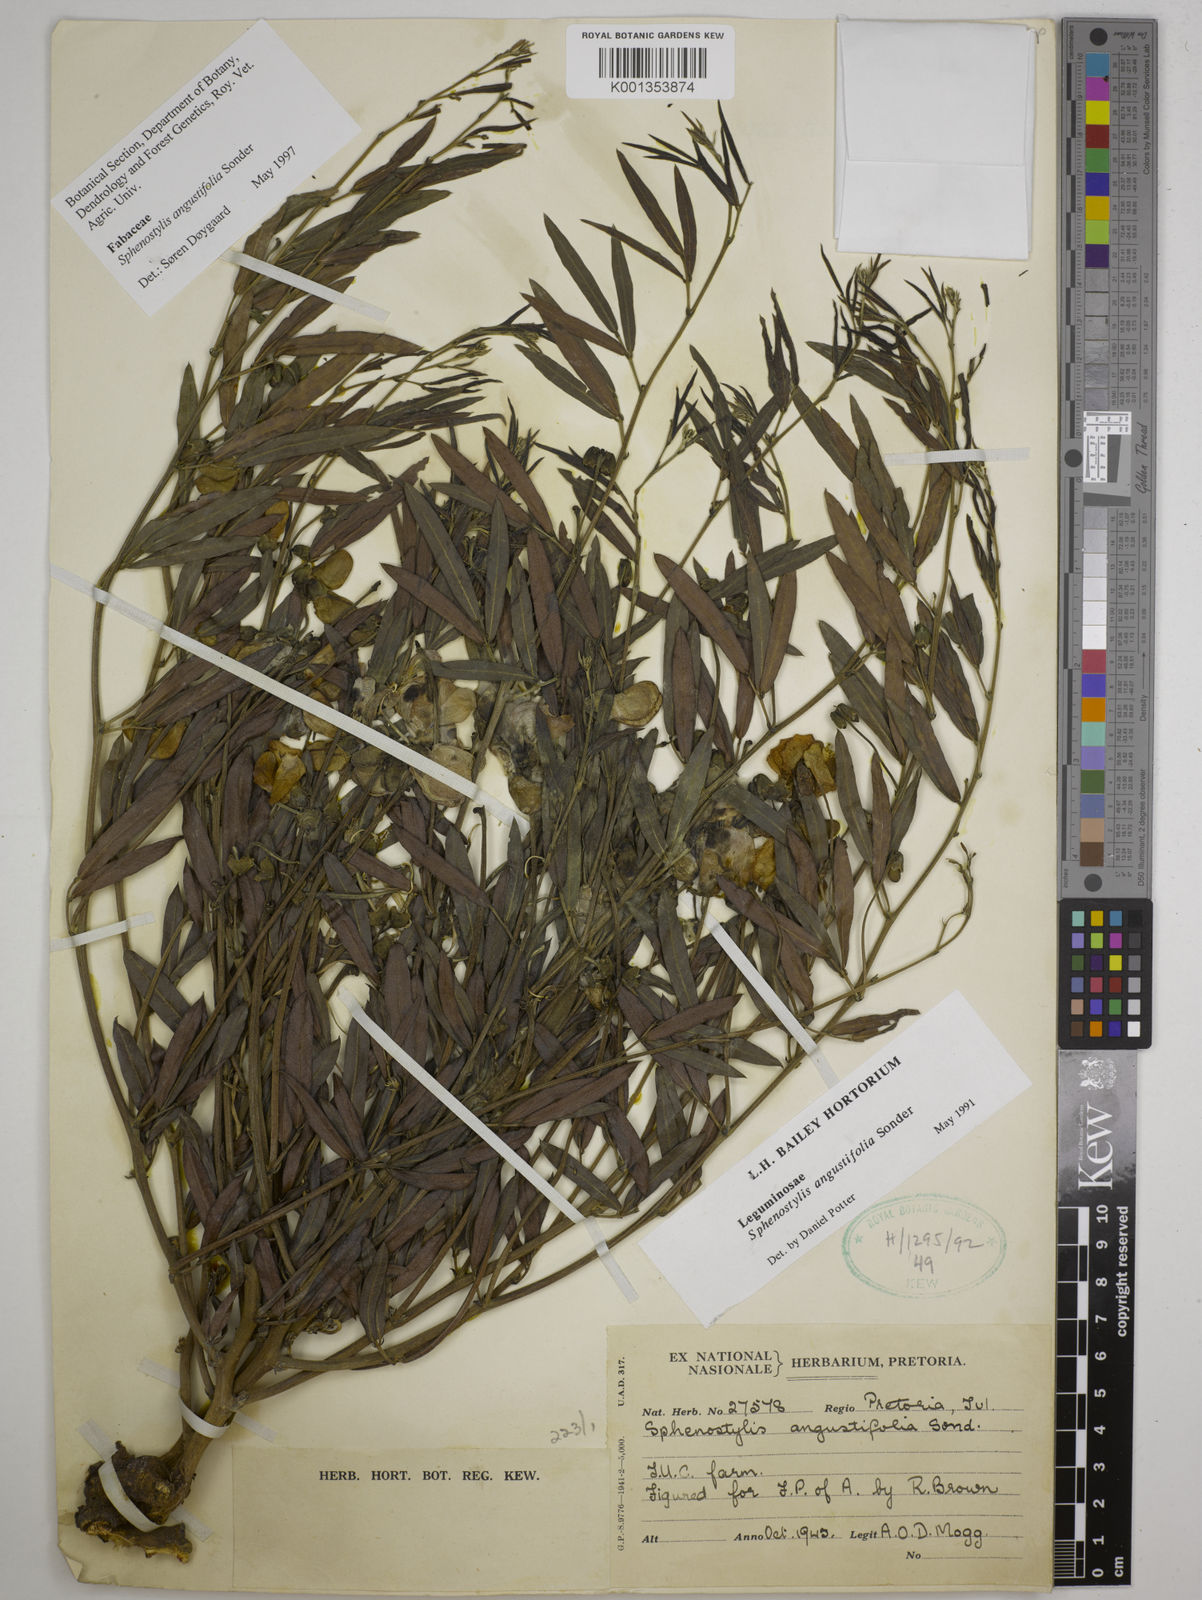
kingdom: Plantae
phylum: Tracheophyta
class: Magnoliopsida
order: Fabales
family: Fabaceae
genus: Sphenostylis
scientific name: Sphenostylis angustifolia
